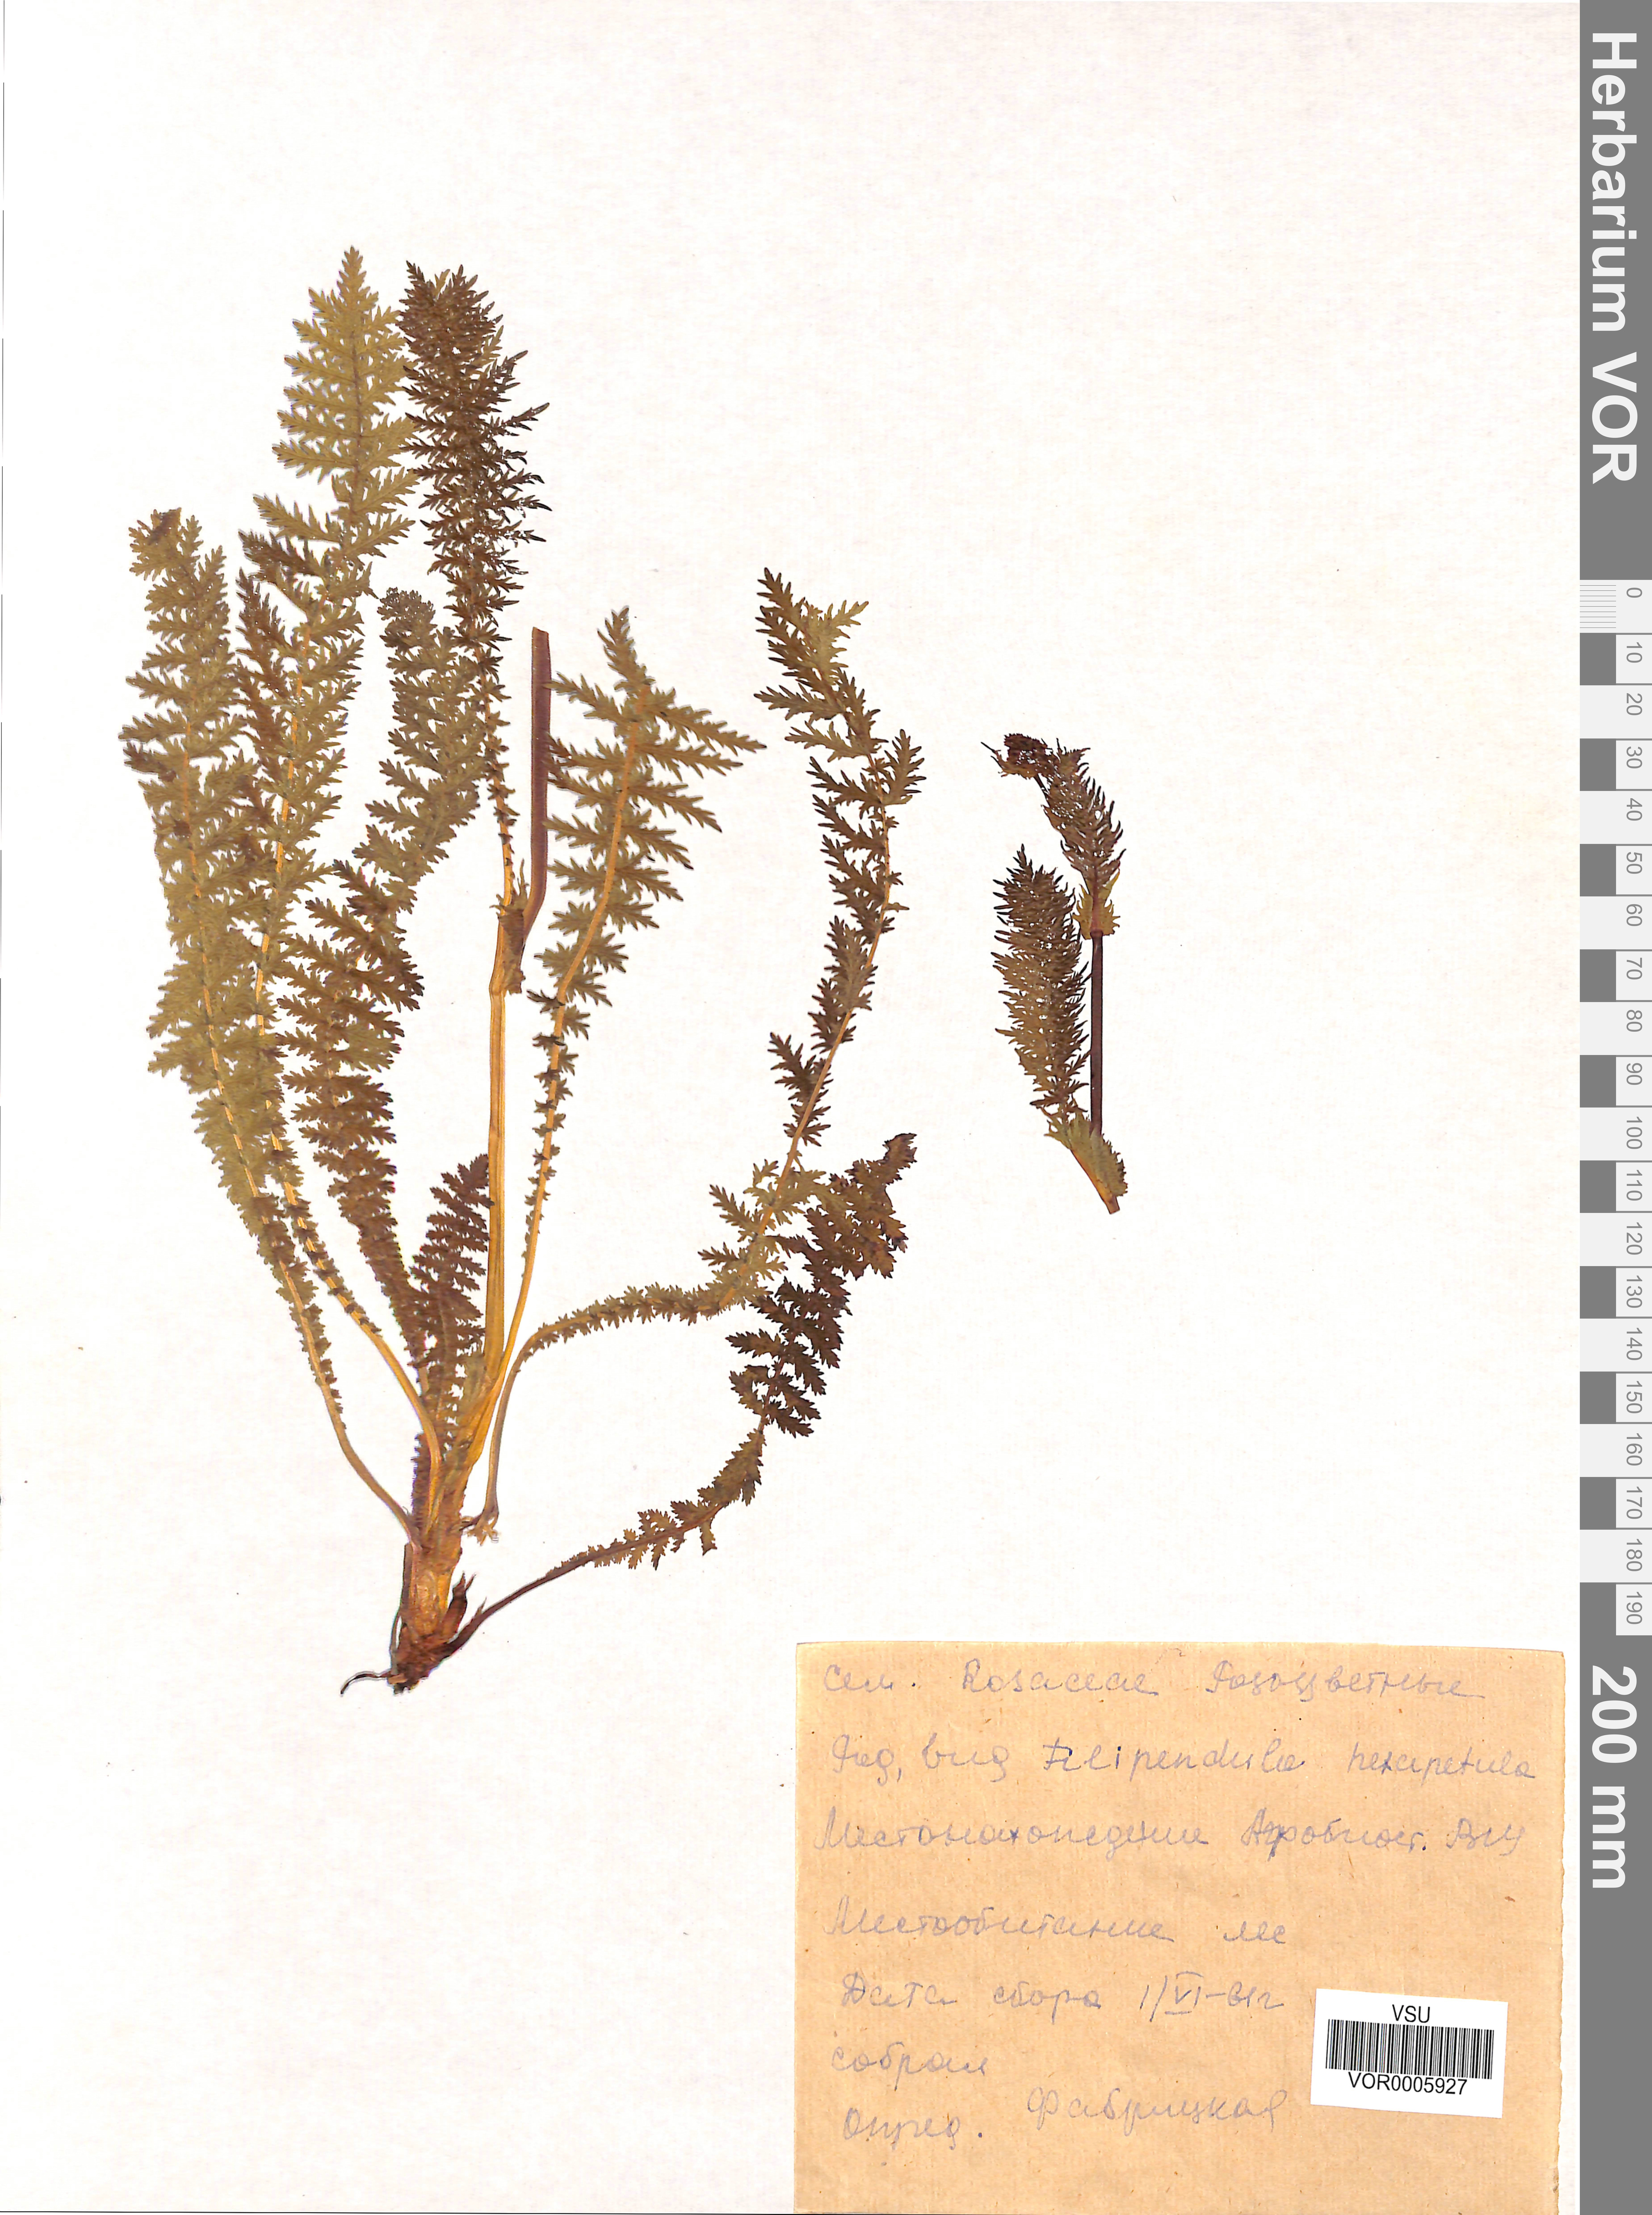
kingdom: Plantae
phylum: Tracheophyta
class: Magnoliopsida
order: Rosales
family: Rosaceae
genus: Filipendula
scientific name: Filipendula vulgaris
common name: Dropwort
